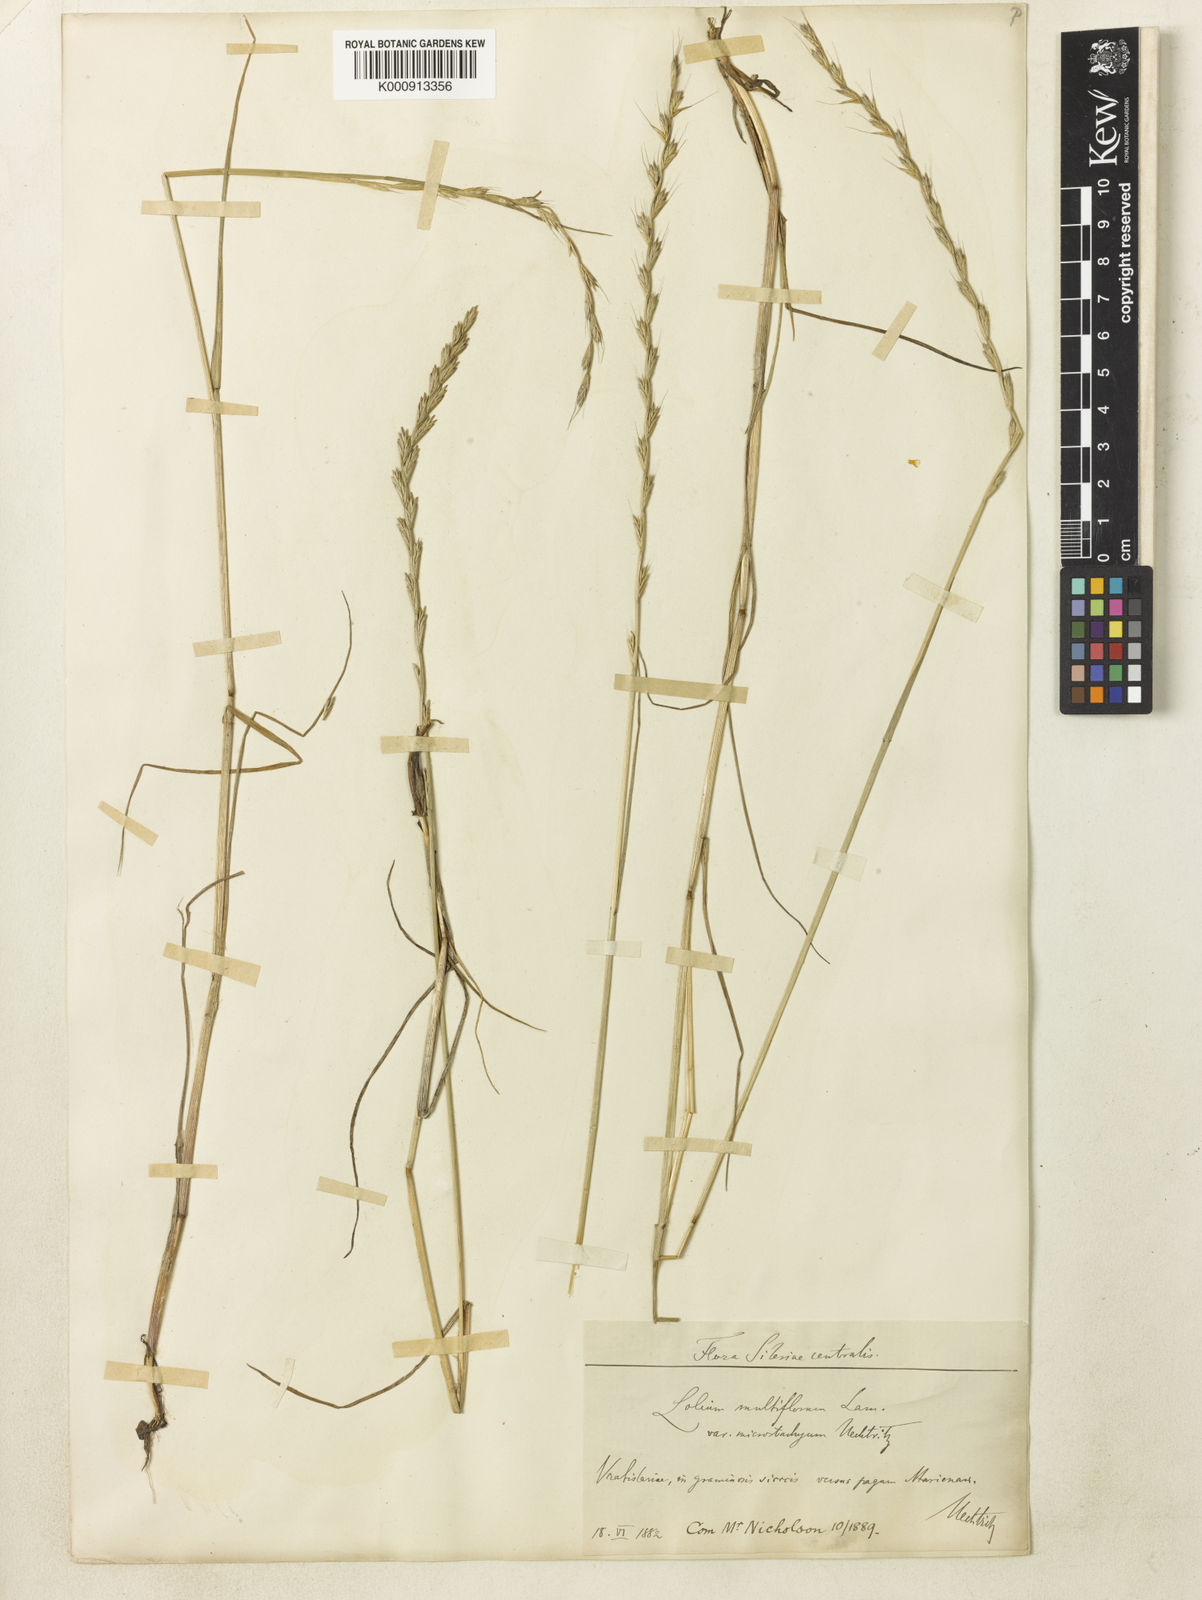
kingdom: Plantae
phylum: Tracheophyta
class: Liliopsida
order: Poales
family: Poaceae
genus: Lolium
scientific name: Lolium multiflorum
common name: Annual ryegrass
